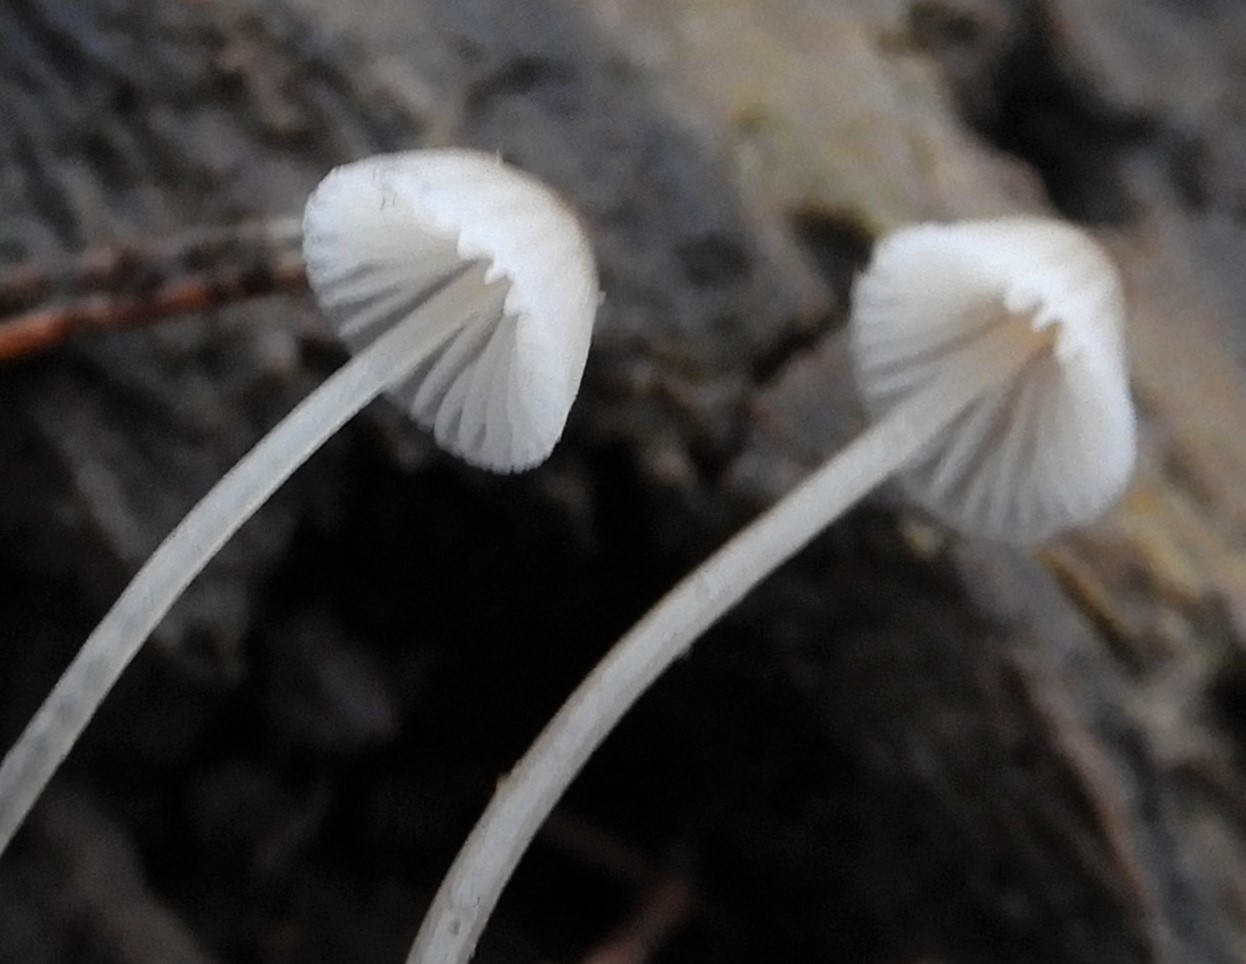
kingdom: Fungi
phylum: Basidiomycota
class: Agaricomycetes
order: Agaricales
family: Mycenaceae
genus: Mycena
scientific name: Mycena
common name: huesvamp
